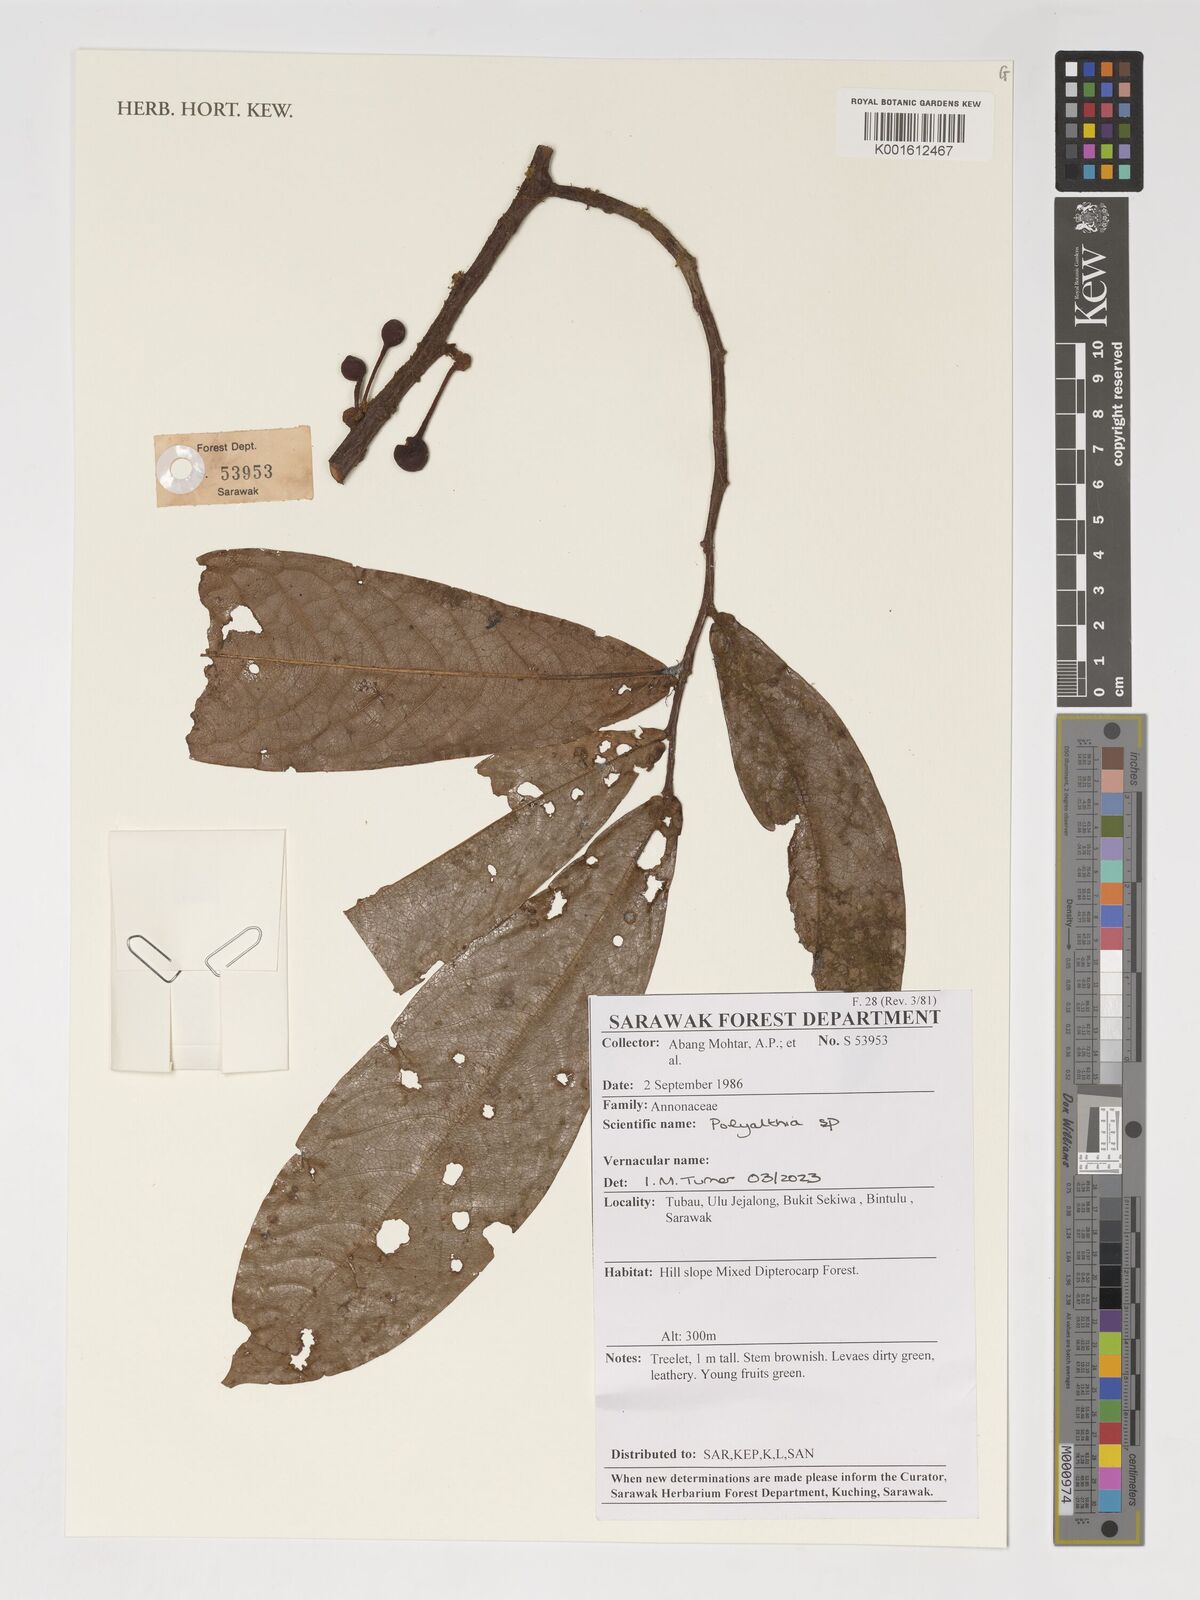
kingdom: Plantae
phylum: Tracheophyta
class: Magnoliopsida
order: Magnoliales
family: Annonaceae
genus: Polyalthia
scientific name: Polyalthia
